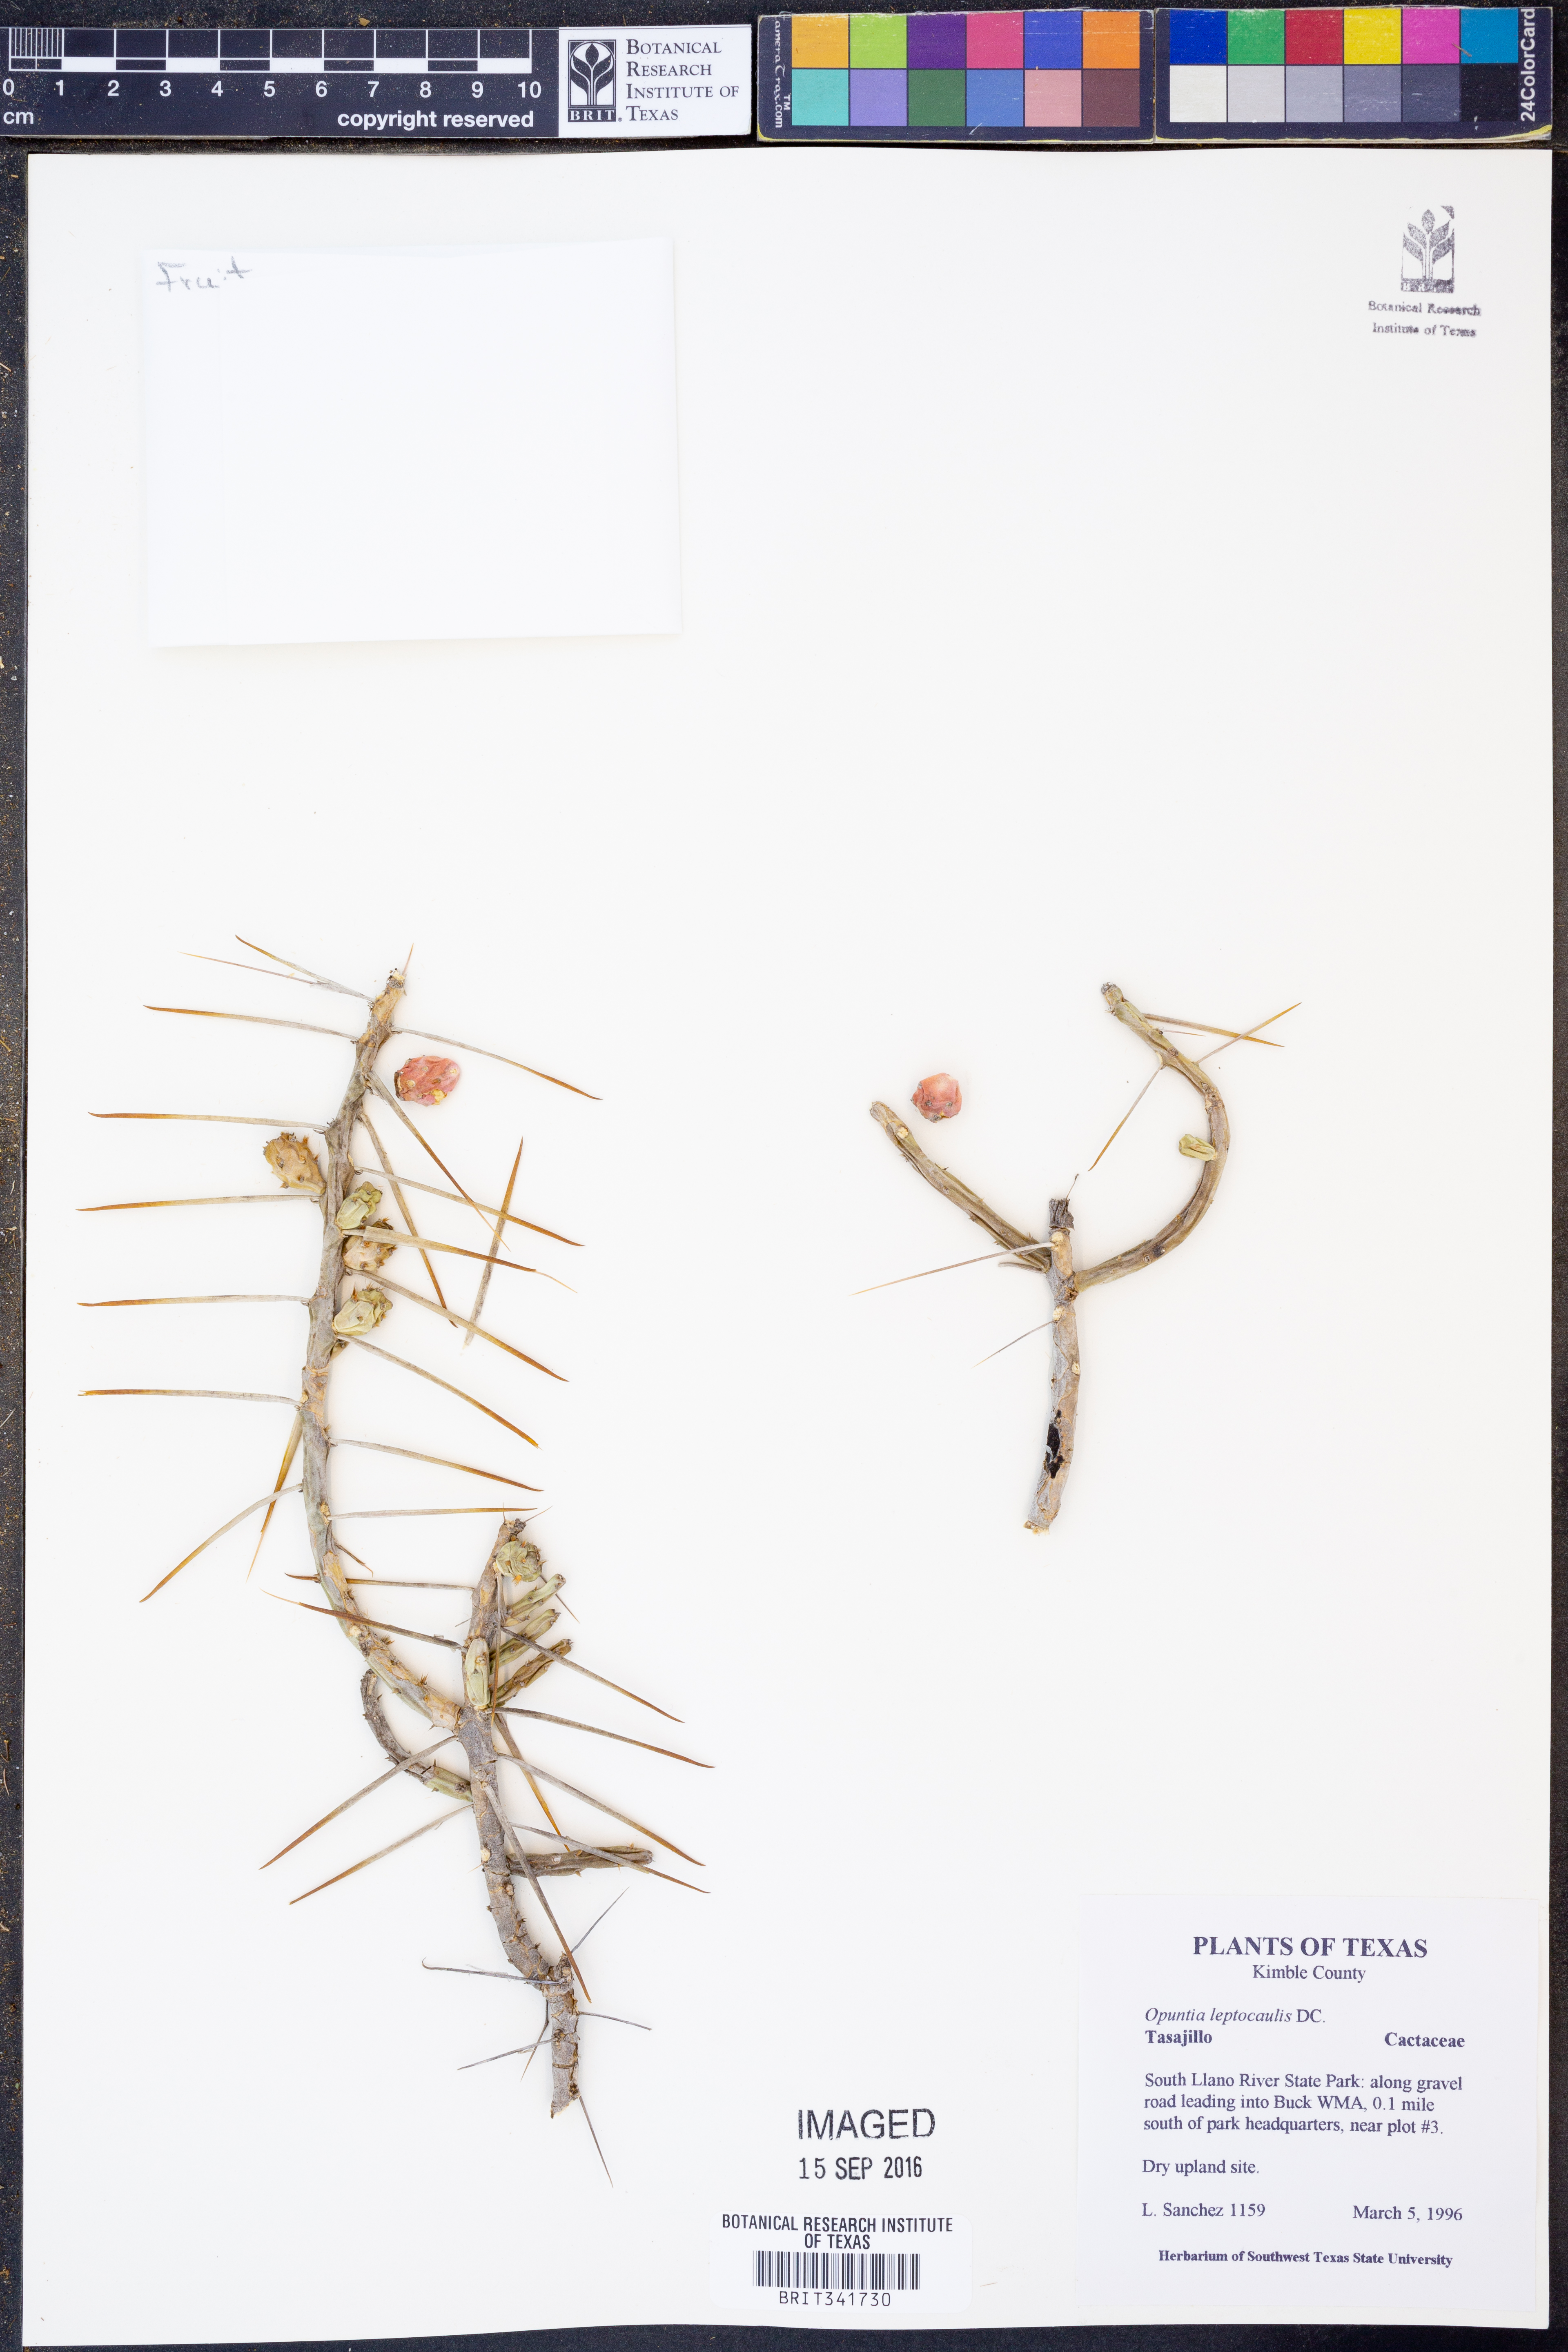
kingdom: Plantae
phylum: Tracheophyta
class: Magnoliopsida
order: Caryophyllales
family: Cactaceae
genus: Cylindropuntia
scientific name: Cylindropuntia leptocaulis
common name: Christmas cactus
